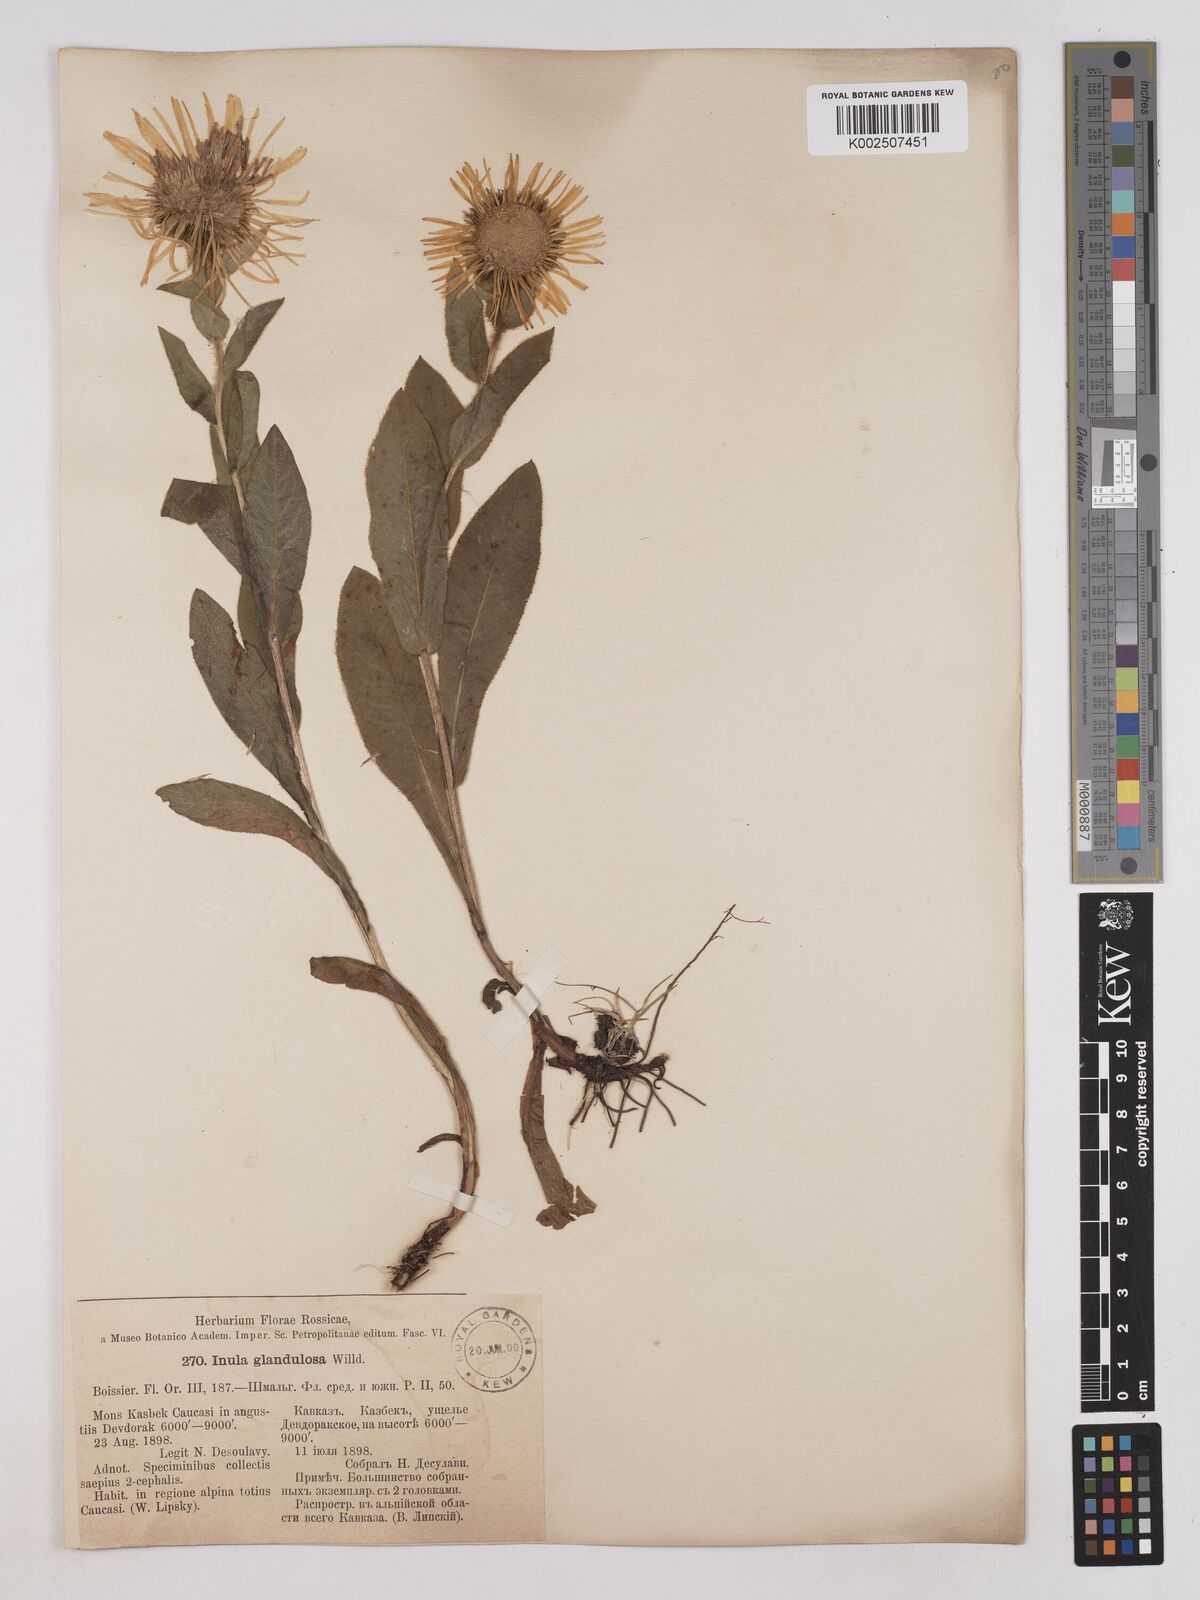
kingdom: Plantae
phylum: Tracheophyta
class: Magnoliopsida
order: Asterales
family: Asteraceae
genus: Pentanema
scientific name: Pentanema orientale
